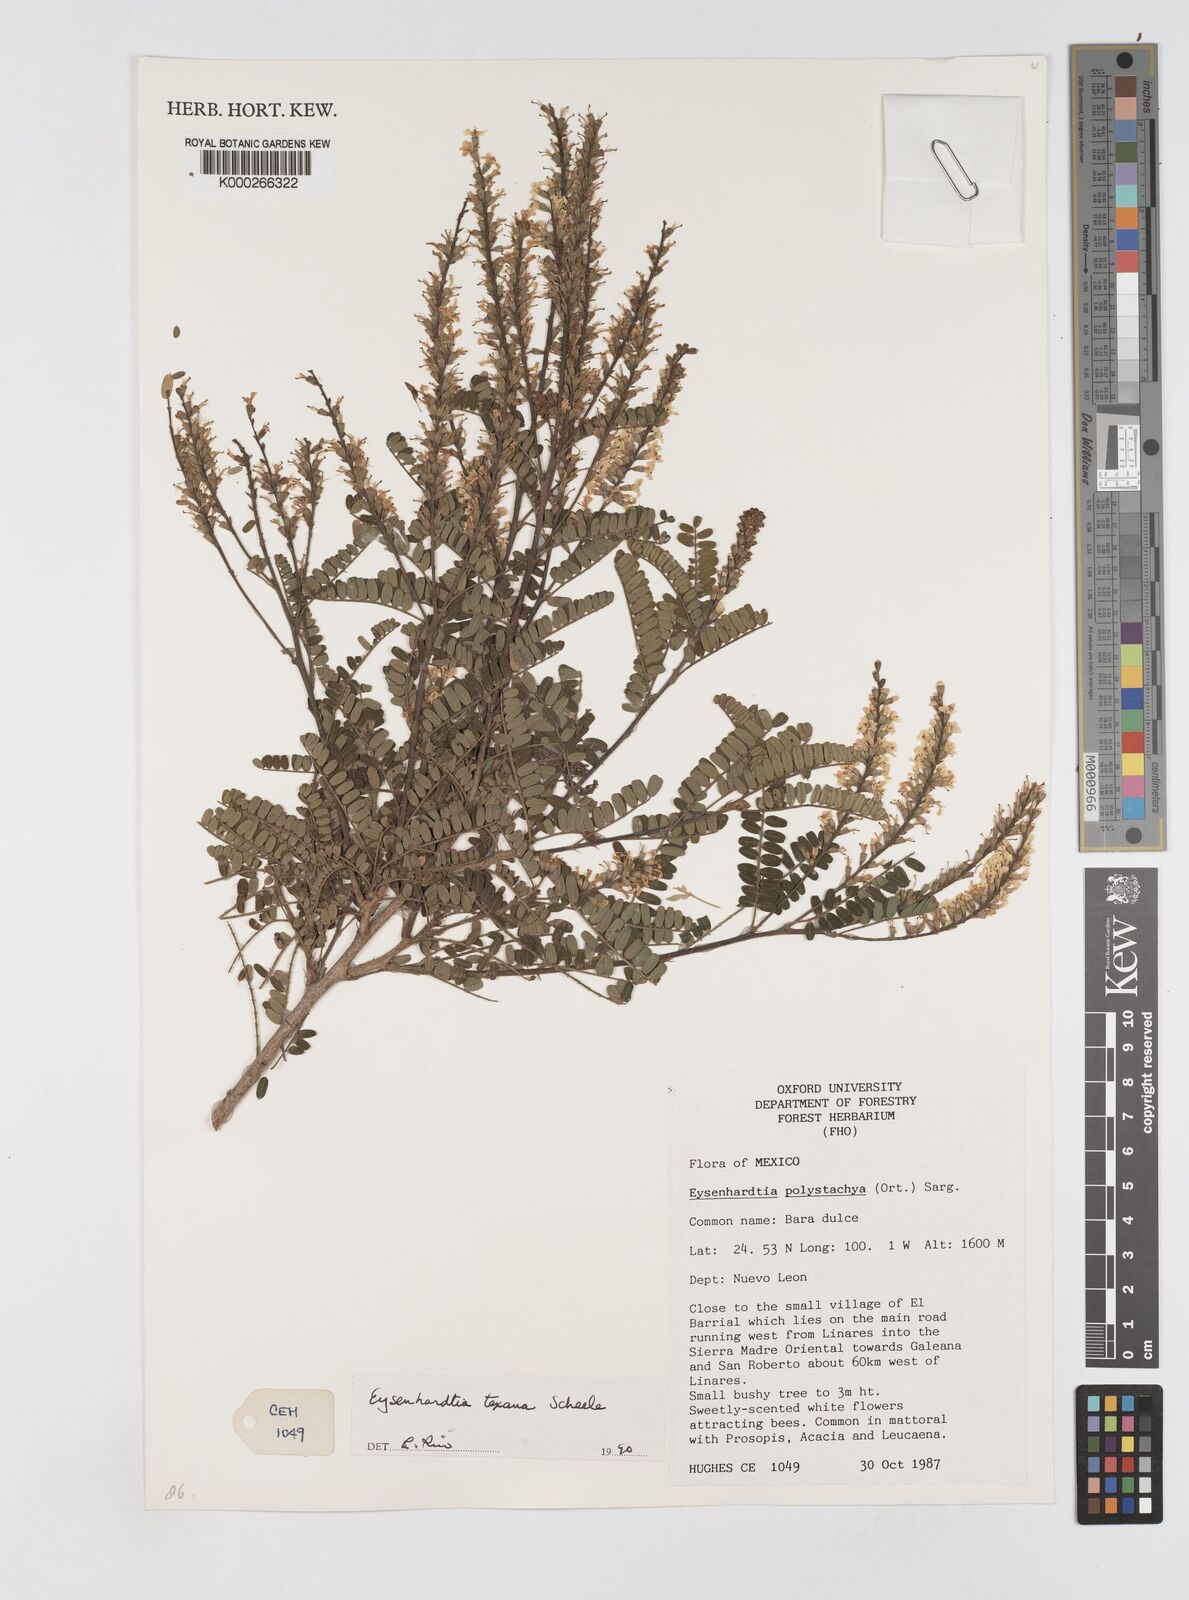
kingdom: Plantae
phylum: Tracheophyta
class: Magnoliopsida
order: Fabales
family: Fabaceae
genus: Eysenhardtia
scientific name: Eysenhardtia texana
